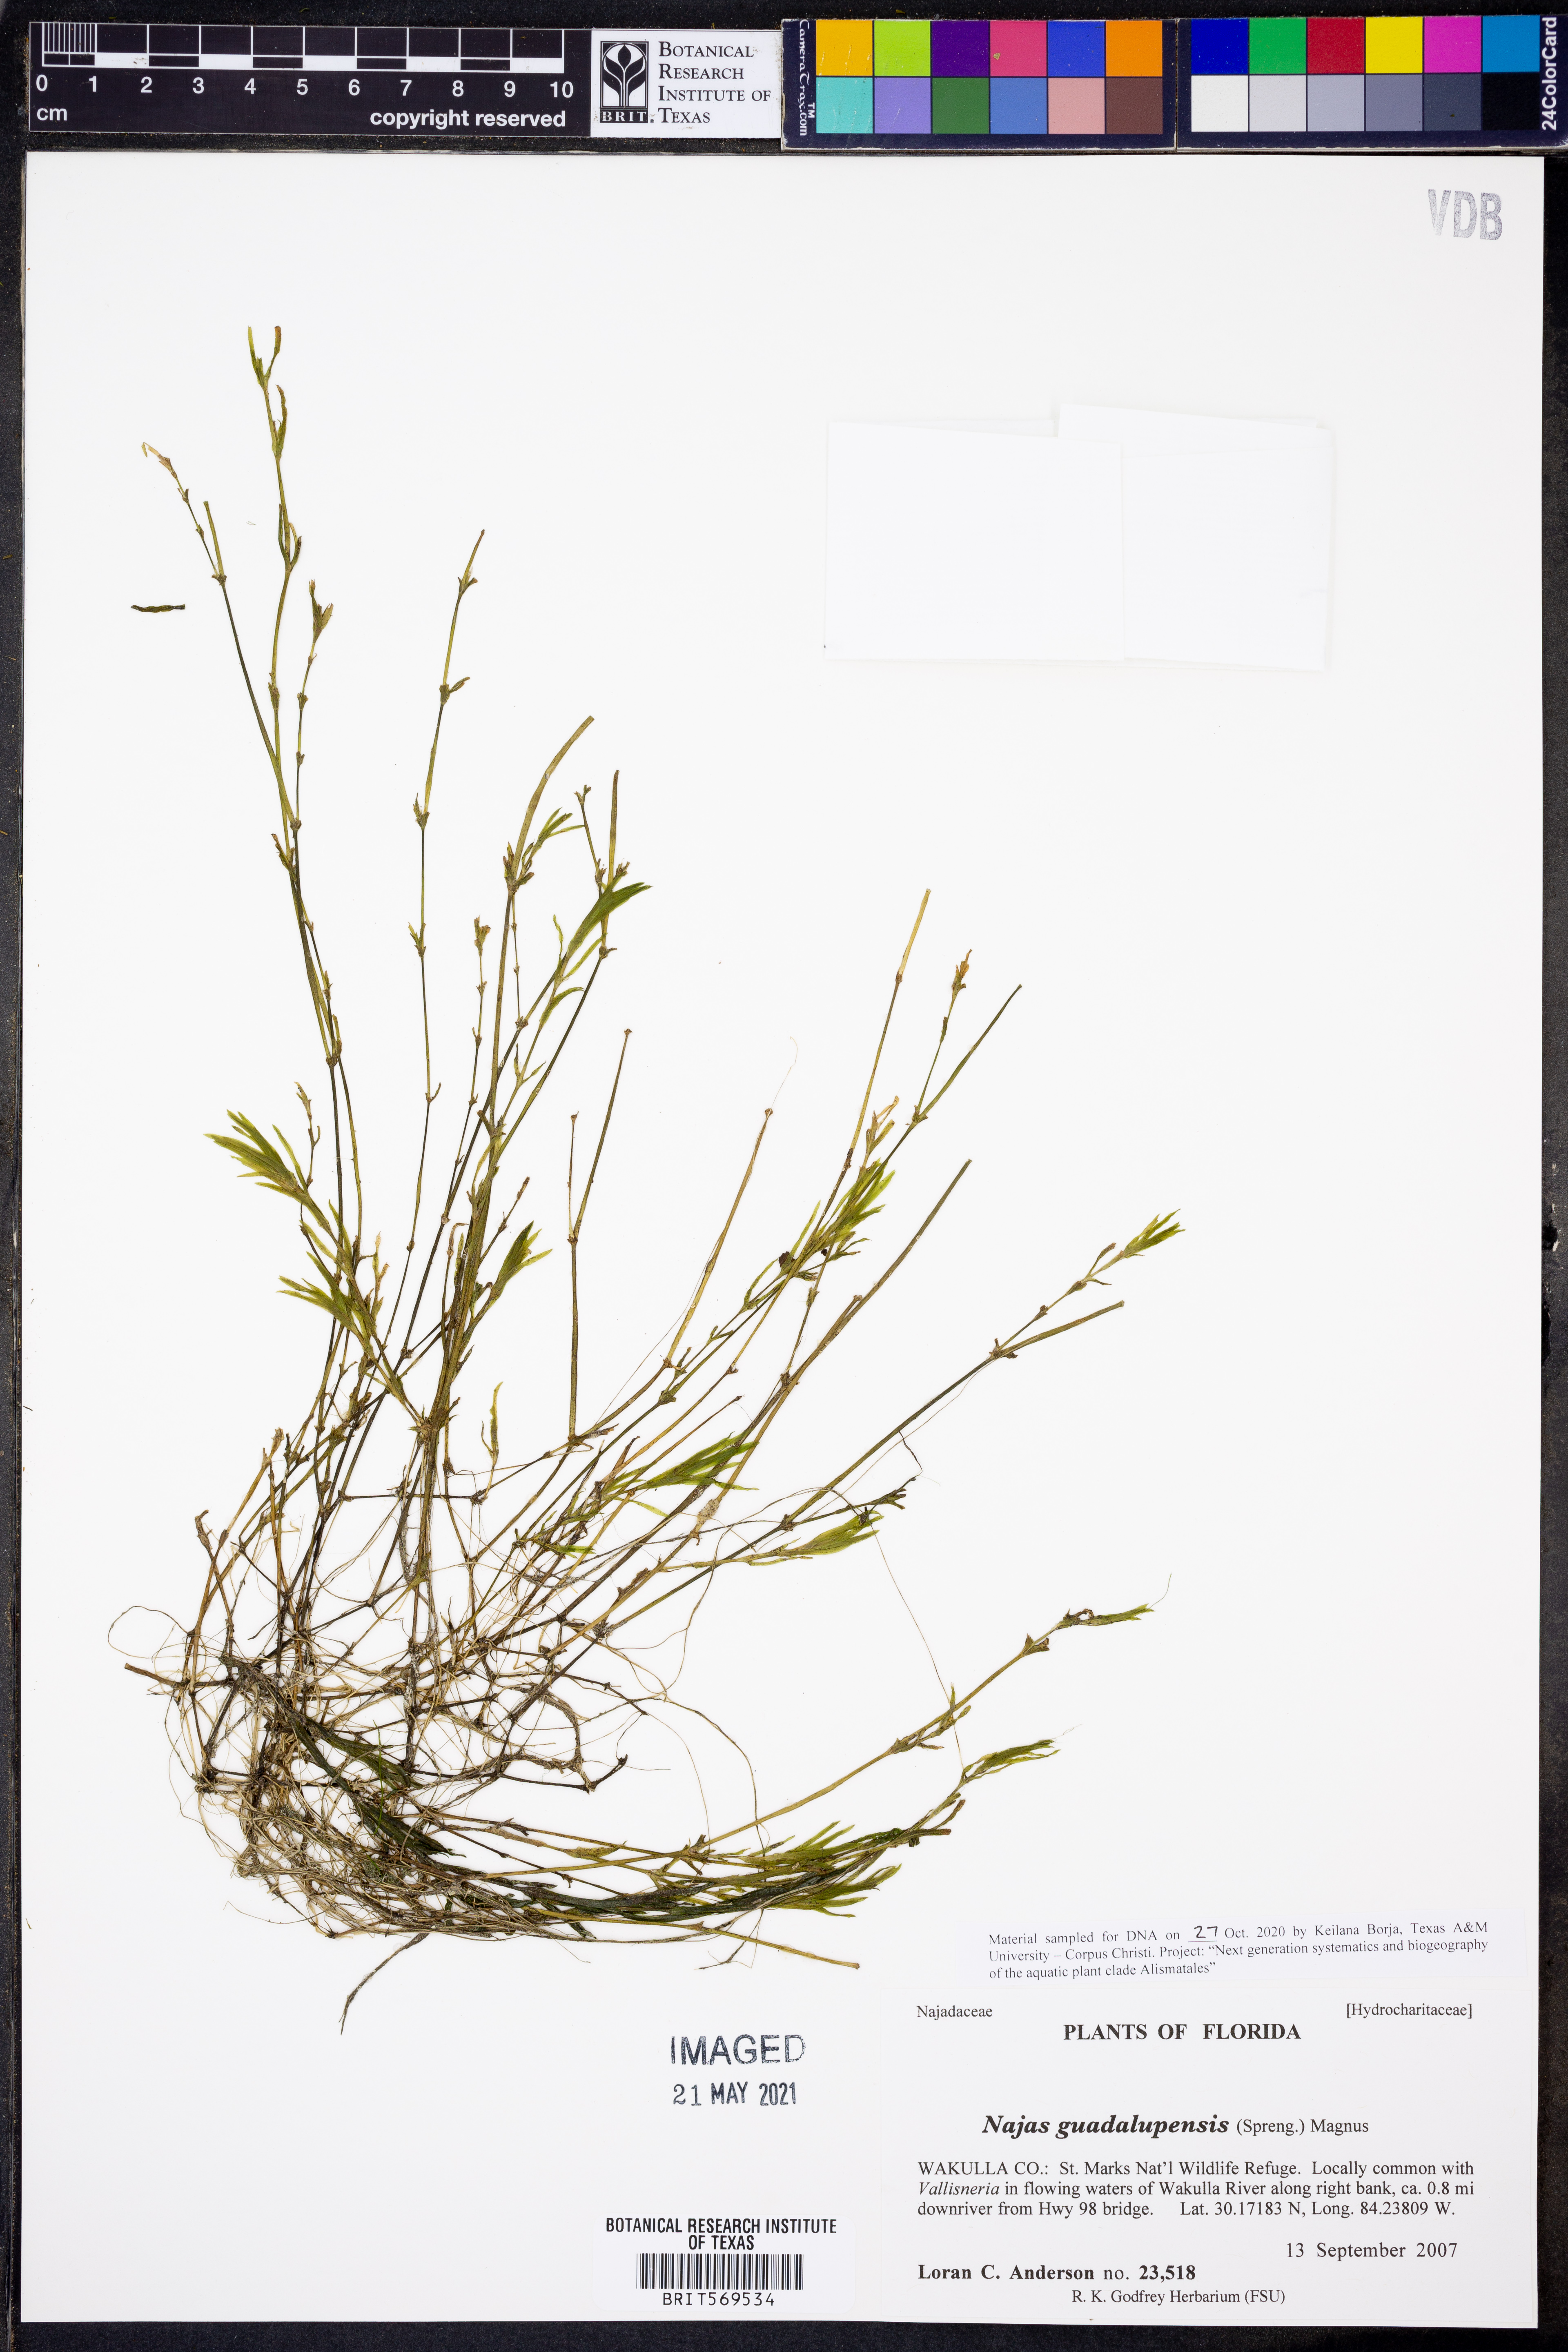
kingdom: Plantae
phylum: Tracheophyta
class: Liliopsida
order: Alismatales
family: Hydrocharitaceae
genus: Najas
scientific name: Najas guadalupensis
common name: Southern naiad
